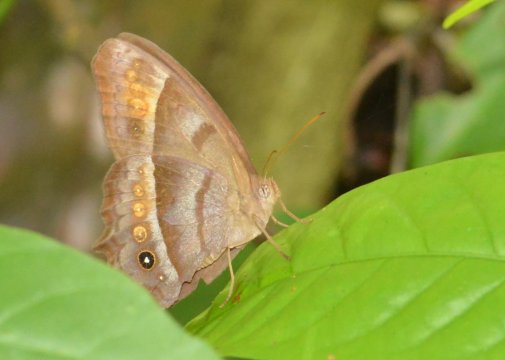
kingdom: Animalia
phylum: Arthropoda
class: Insecta
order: Lepidoptera
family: Nymphalidae
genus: Taygetis
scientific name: Taygetis thamyra
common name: Thamyra Satyr
